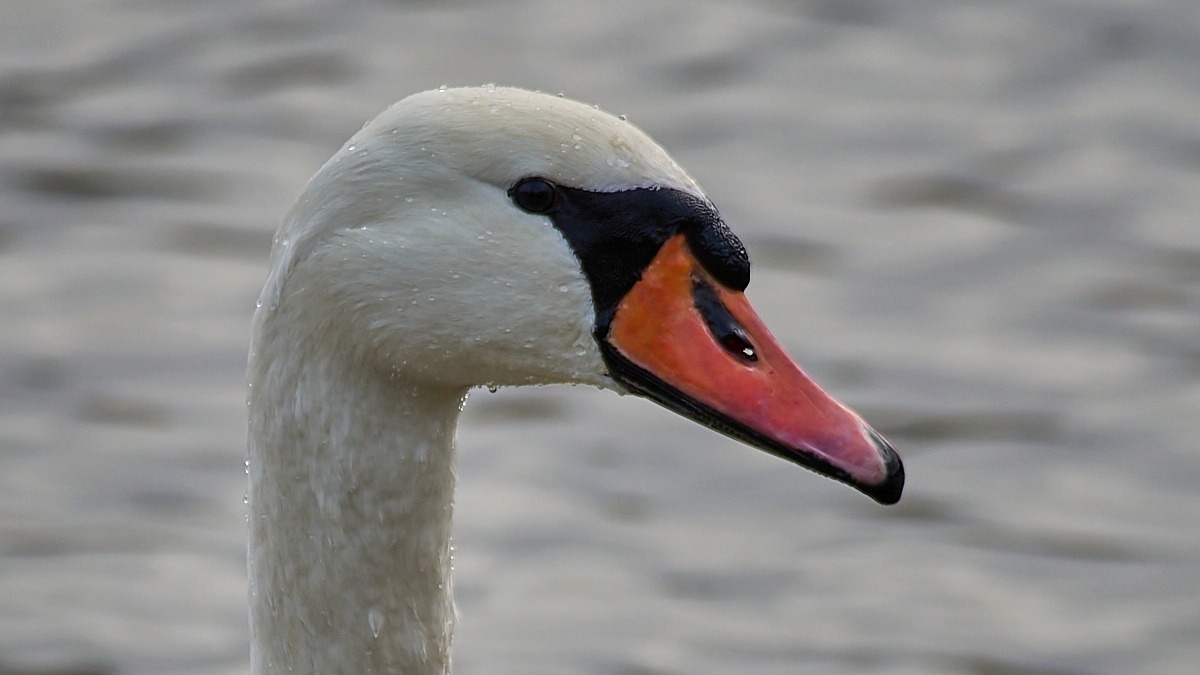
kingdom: Animalia
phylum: Chordata
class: Aves
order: Anseriformes
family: Anatidae
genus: Cygnus
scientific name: Cygnus olor
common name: Knopsvane
